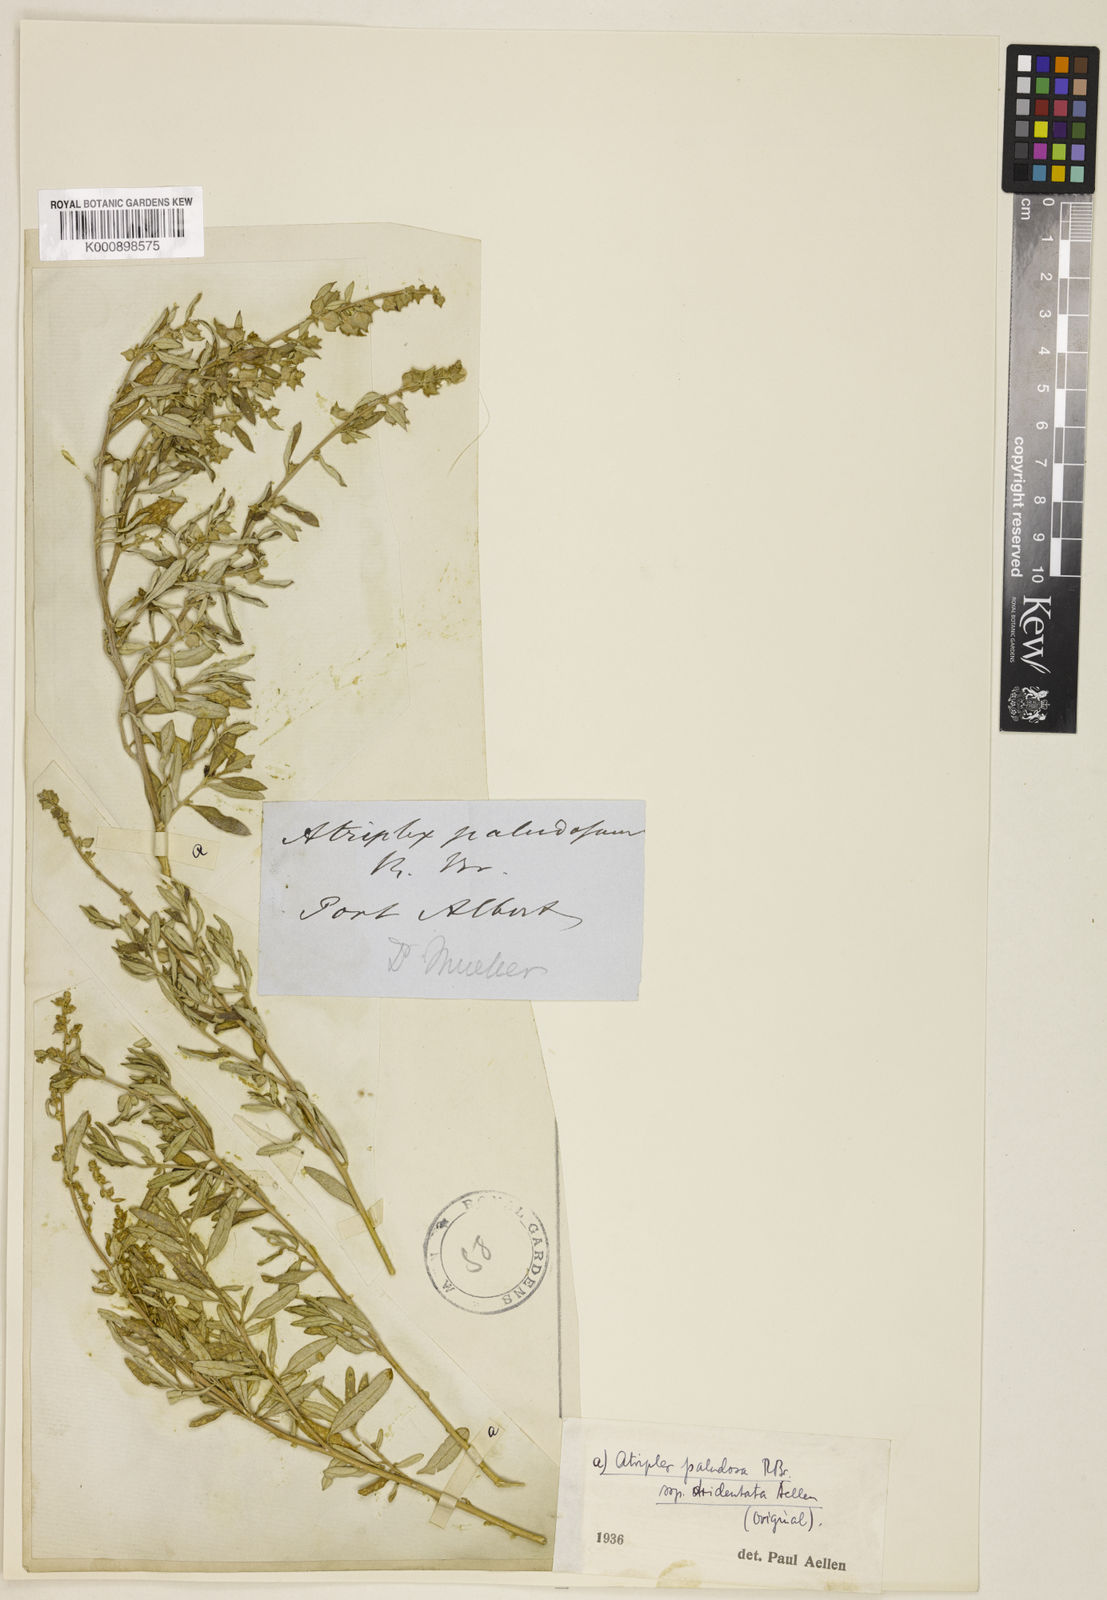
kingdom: Plantae
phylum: Tracheophyta
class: Magnoliopsida
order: Caryophyllales
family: Amaranthaceae
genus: Atriplex
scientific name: Atriplex paludosa
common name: Marsh saltbush
